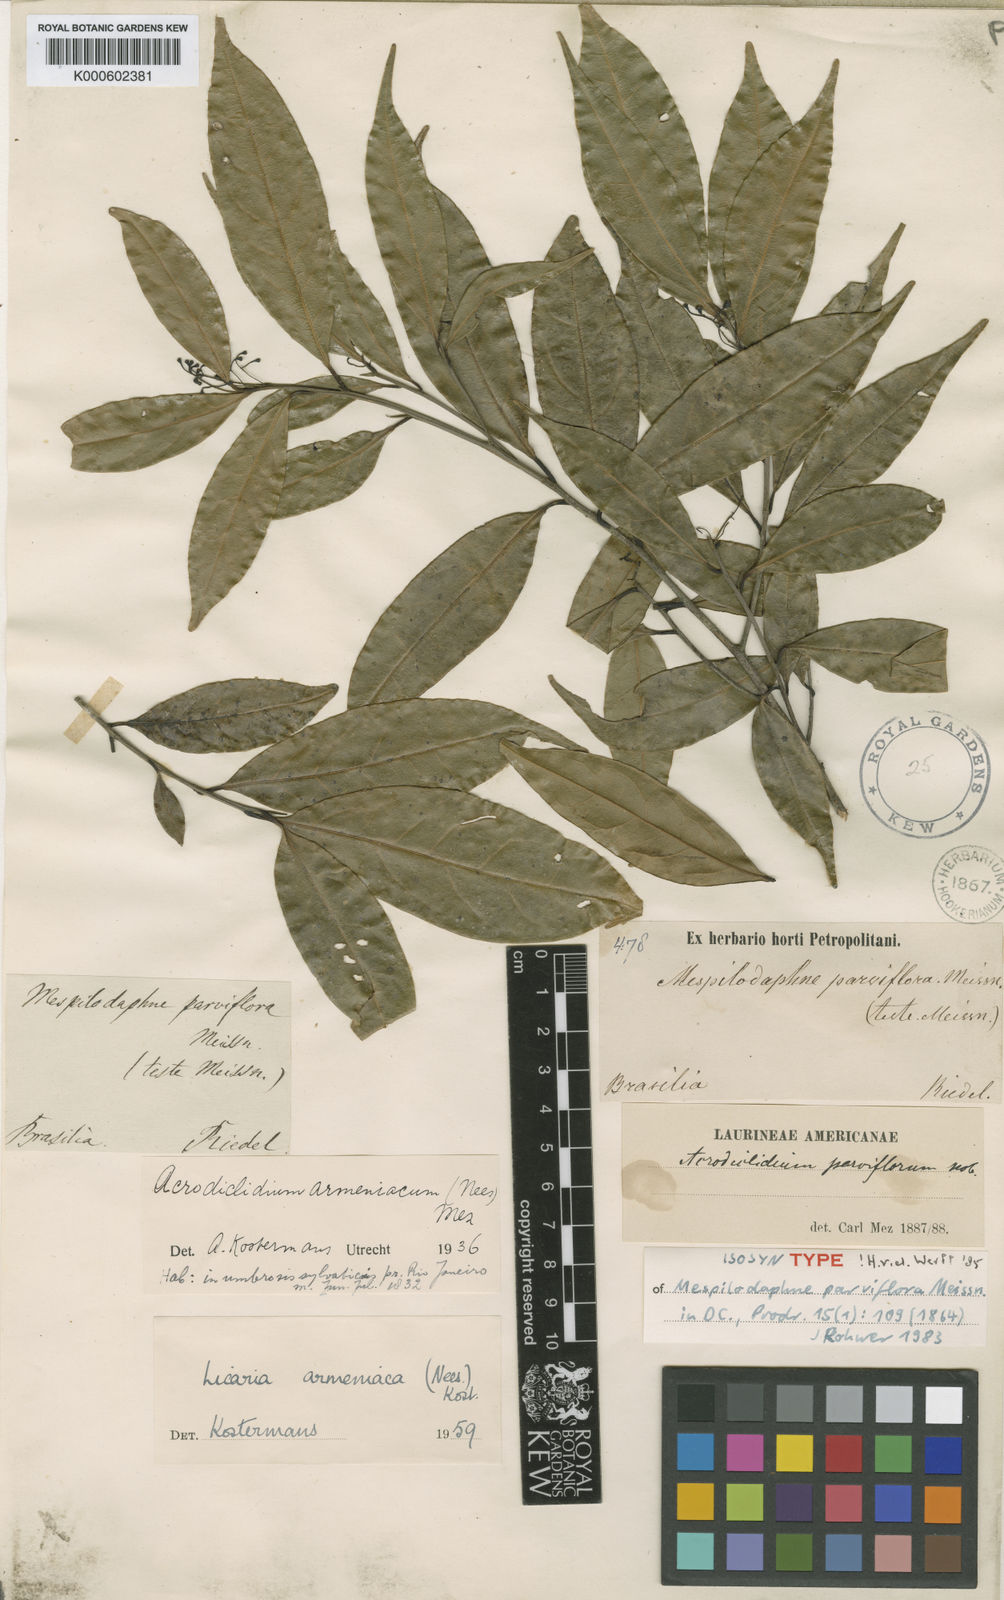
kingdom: Plantae
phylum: Tracheophyta
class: Magnoliopsida
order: Laurales
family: Lauraceae
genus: Pleurothyrium
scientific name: Pleurothyrium parviflorum
